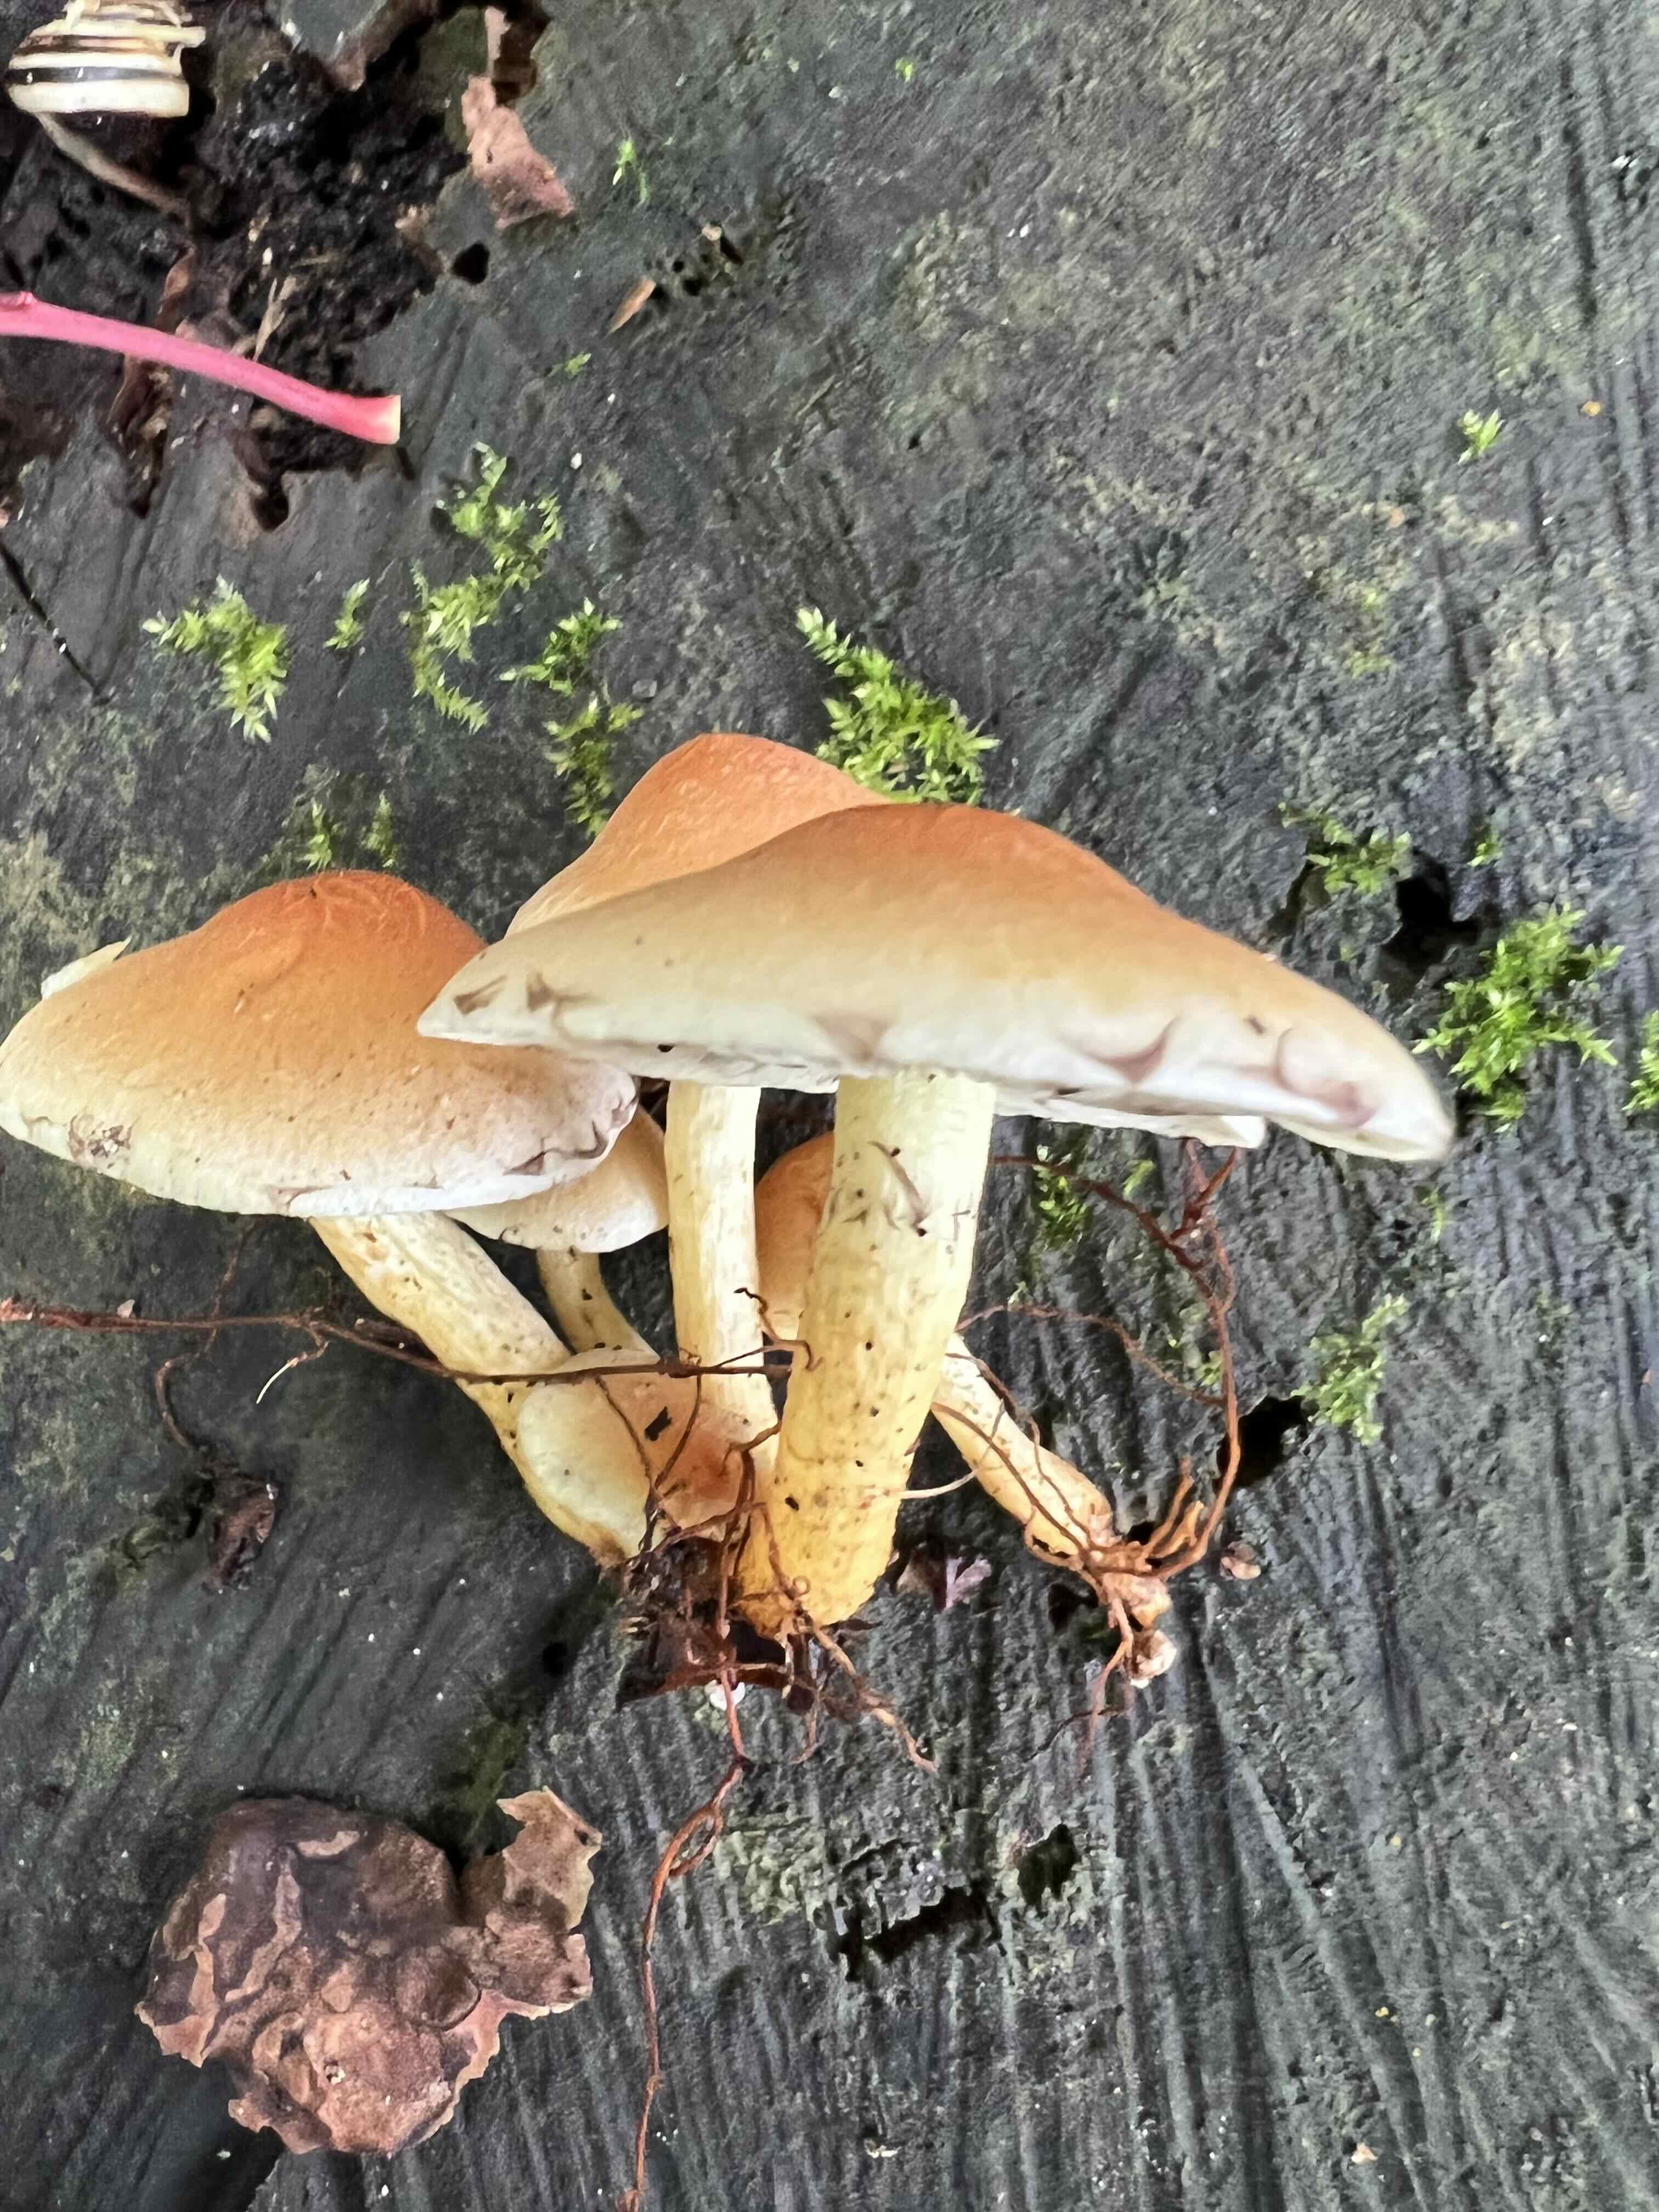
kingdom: Fungi
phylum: Basidiomycota
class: Agaricomycetes
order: Agaricales
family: Strophariaceae
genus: Hypholoma
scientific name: Hypholoma
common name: svovlhat
